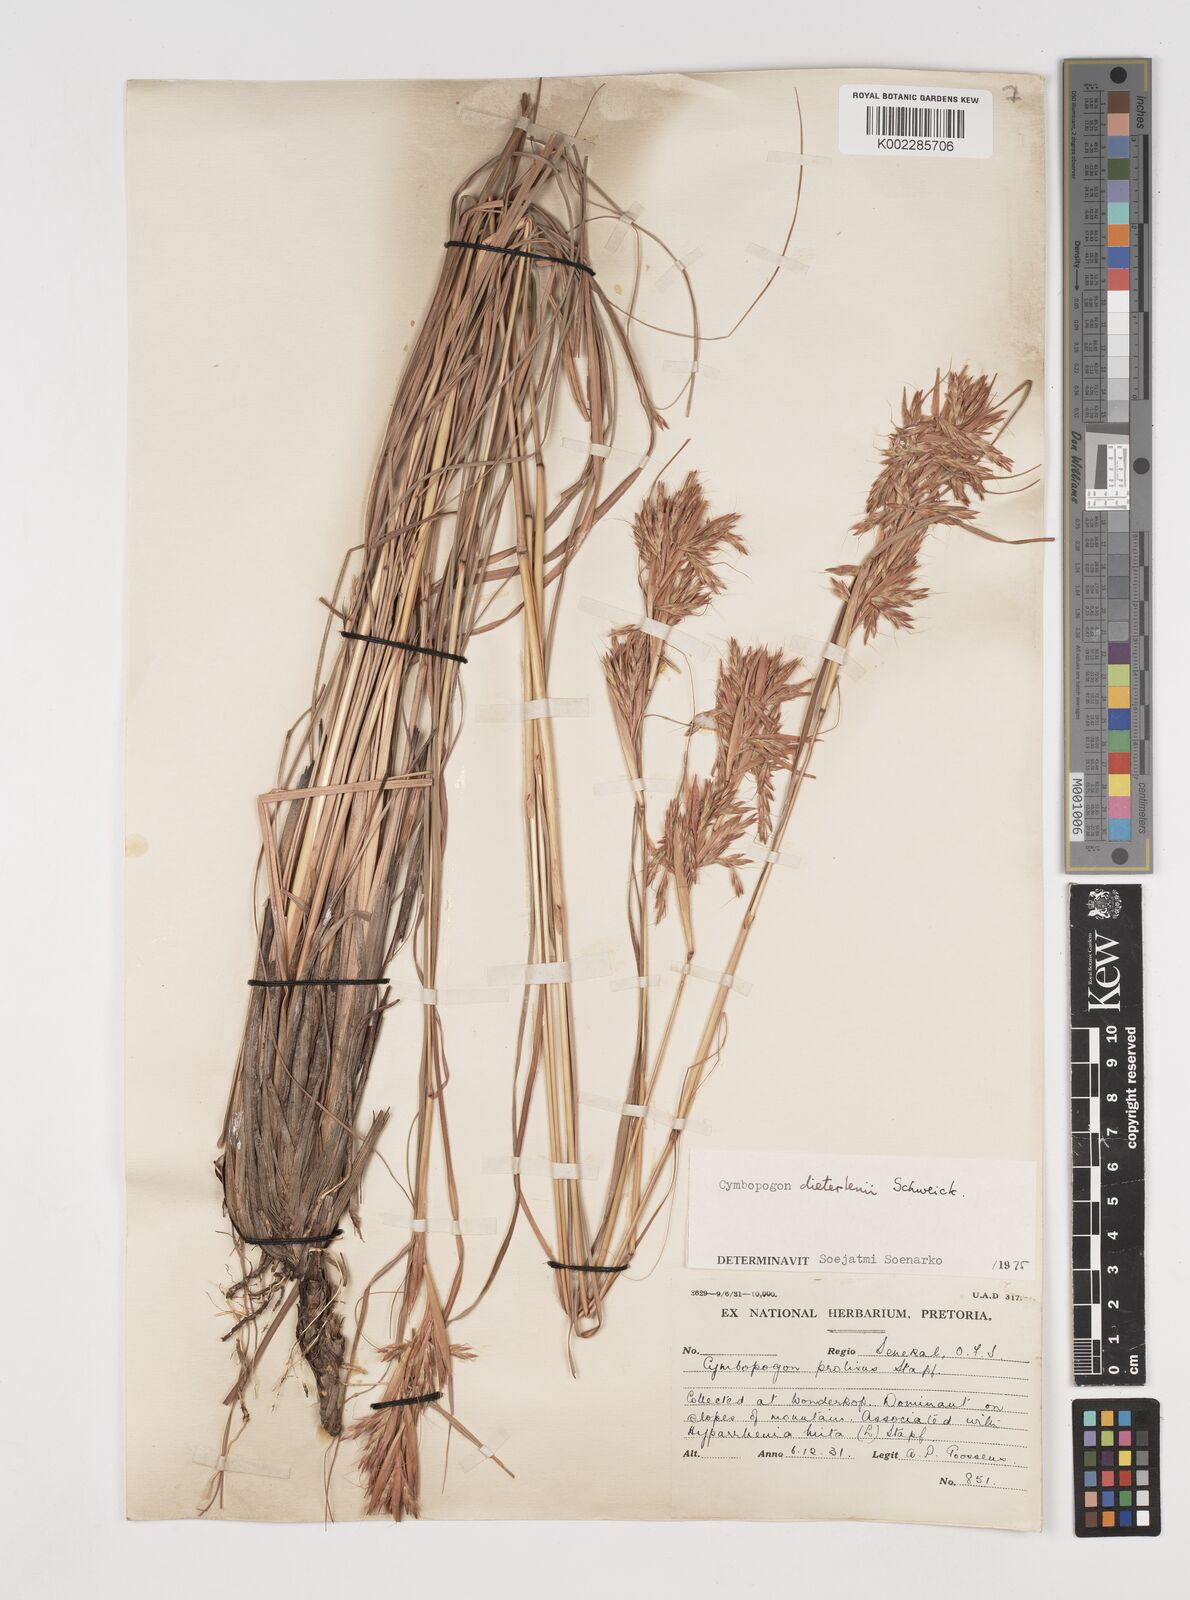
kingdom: Plantae
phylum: Tracheophyta
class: Liliopsida
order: Poales
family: Poaceae
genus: Cymbopogon
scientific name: Cymbopogon dieterlenii
